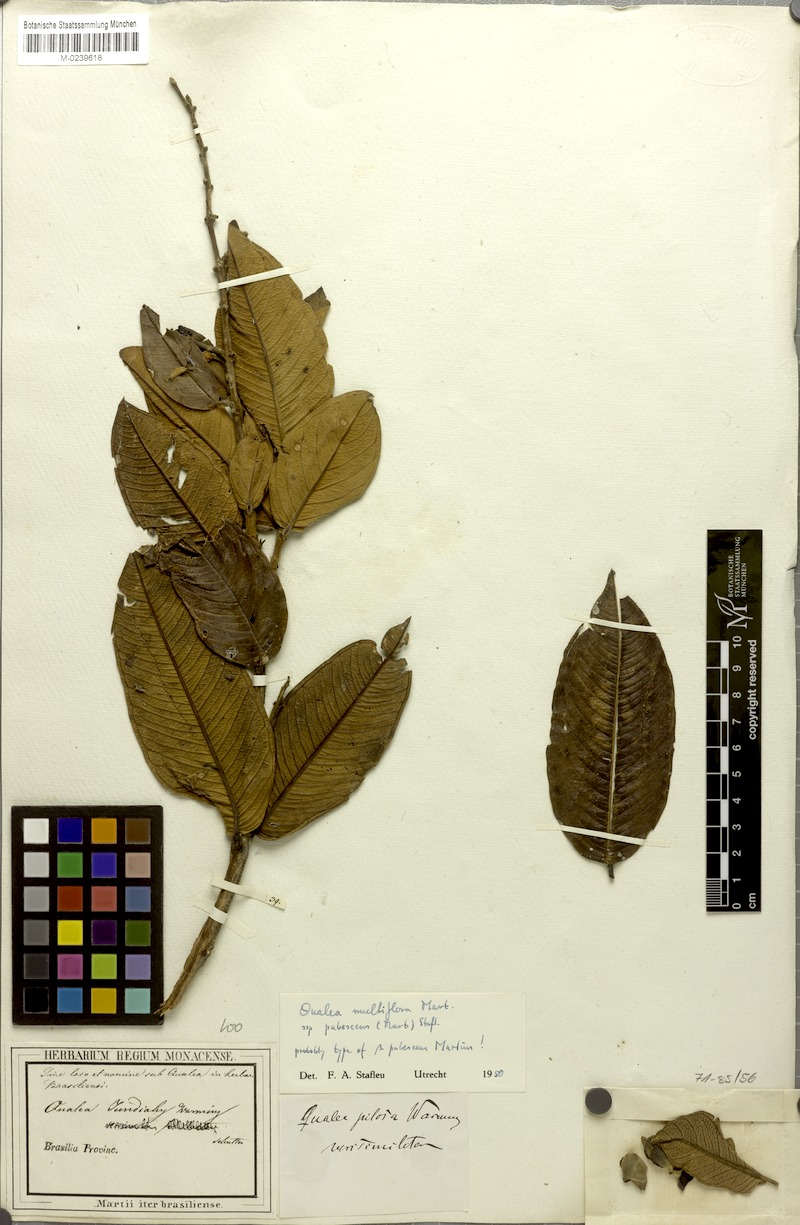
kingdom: Plantae
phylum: Tracheophyta
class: Magnoliopsida
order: Myrtales
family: Vochysiaceae
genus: Qualea
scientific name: Qualea multiflora
